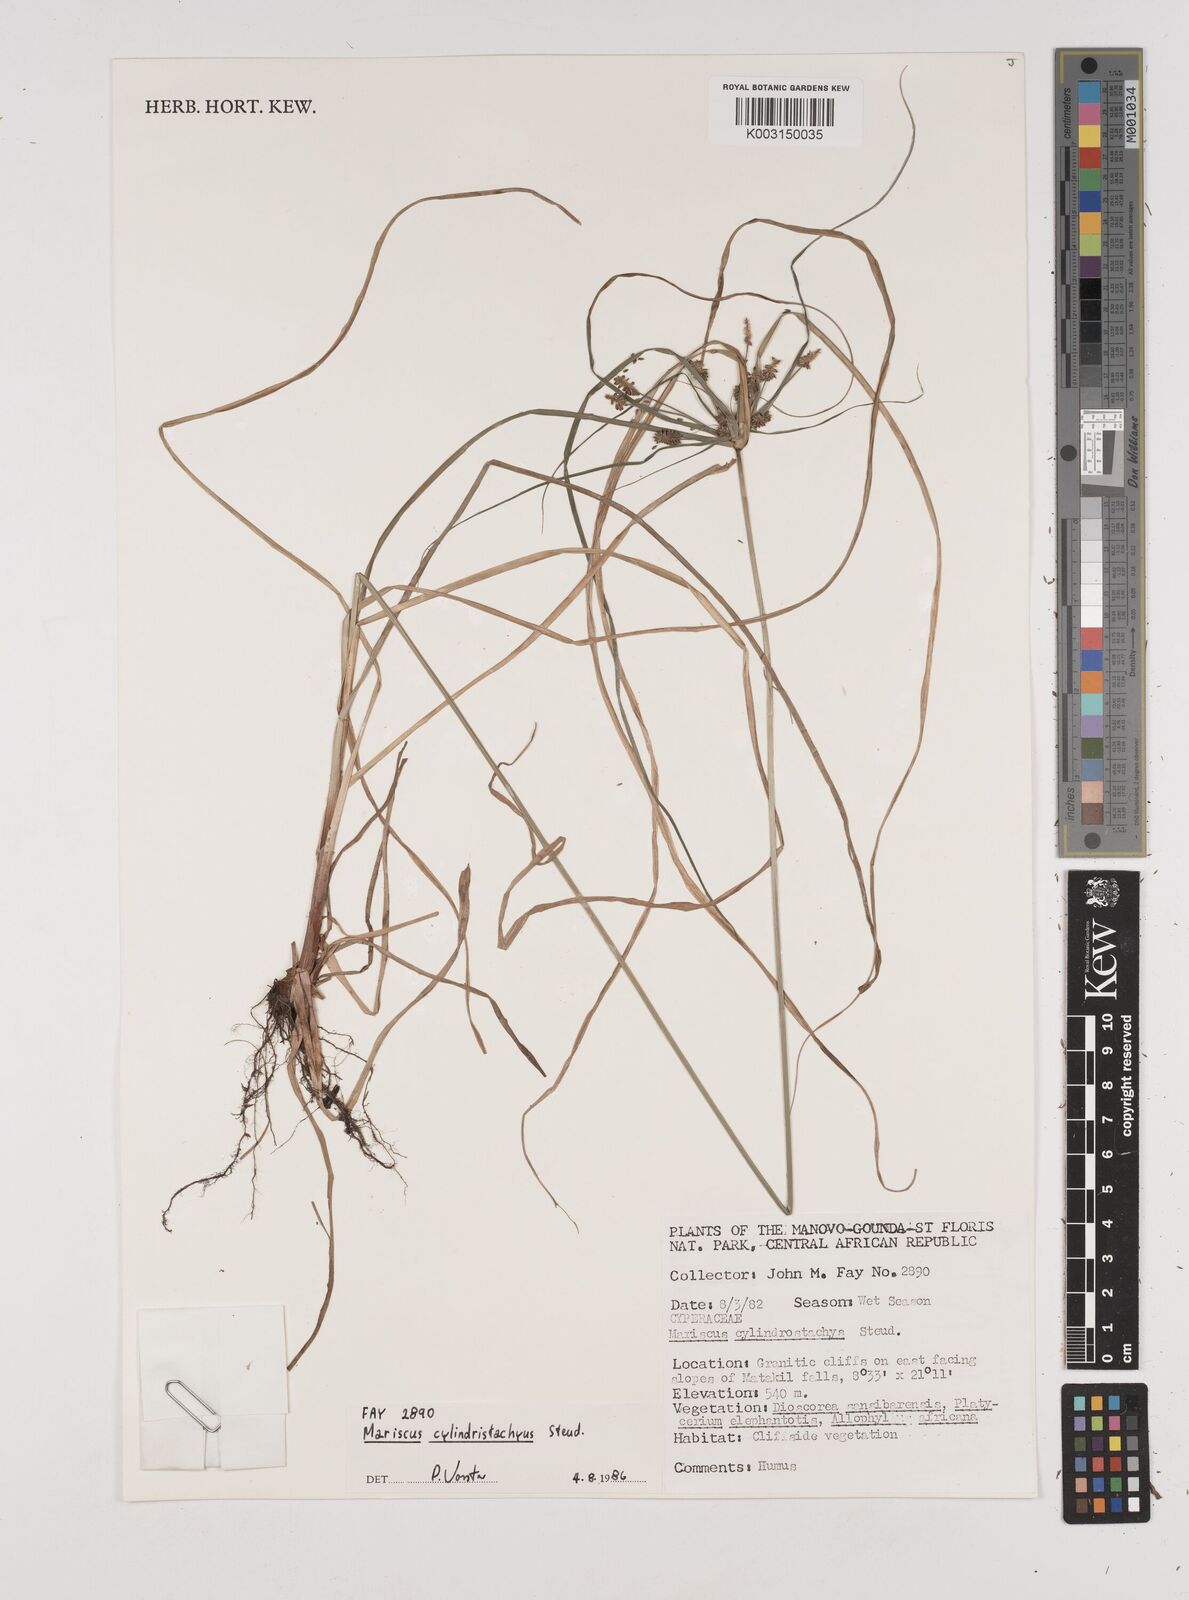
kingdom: Plantae
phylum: Tracheophyta
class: Liliopsida
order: Poales
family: Cyperaceae
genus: Cyperus
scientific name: Cyperus cyperoides
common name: Pacific island flat sedge
